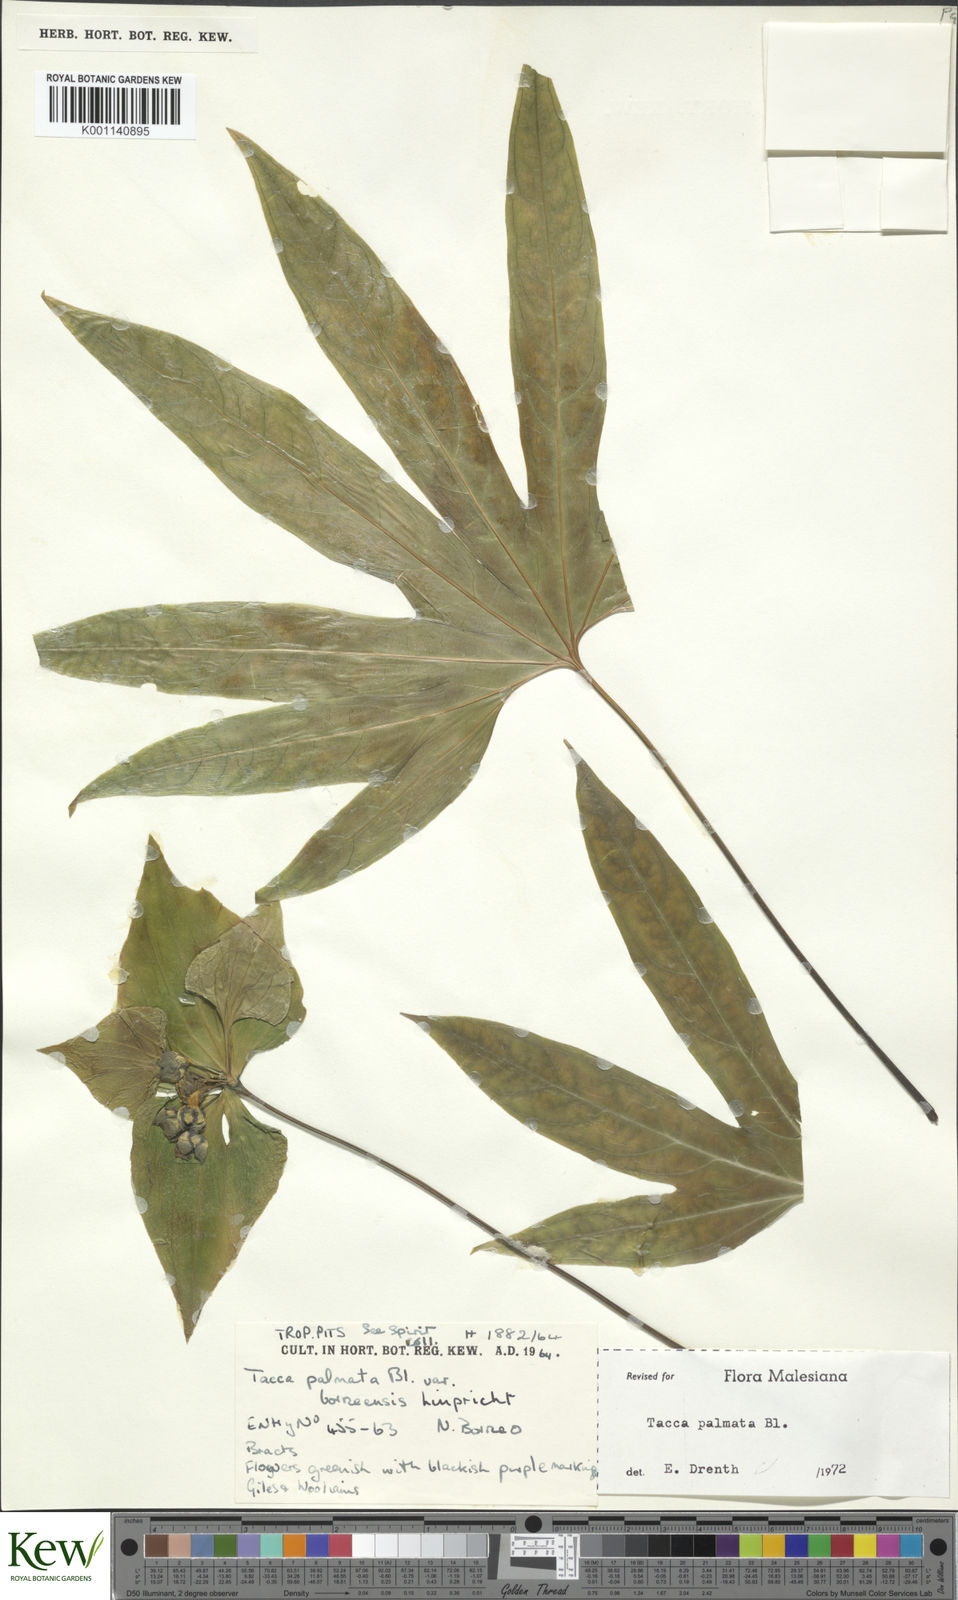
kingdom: Plantae
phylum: Tracheophyta
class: Liliopsida
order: Dioscoreales
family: Dioscoreaceae
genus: Tacca
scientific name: Tacca palmata
